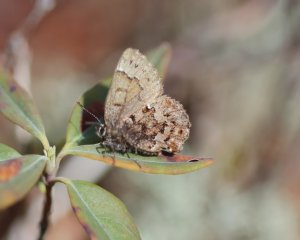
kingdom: Animalia
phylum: Arthropoda
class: Insecta
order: Lepidoptera
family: Lycaenidae
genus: Incisalia
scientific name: Incisalia lanoraieensis
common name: Bog Elfin
